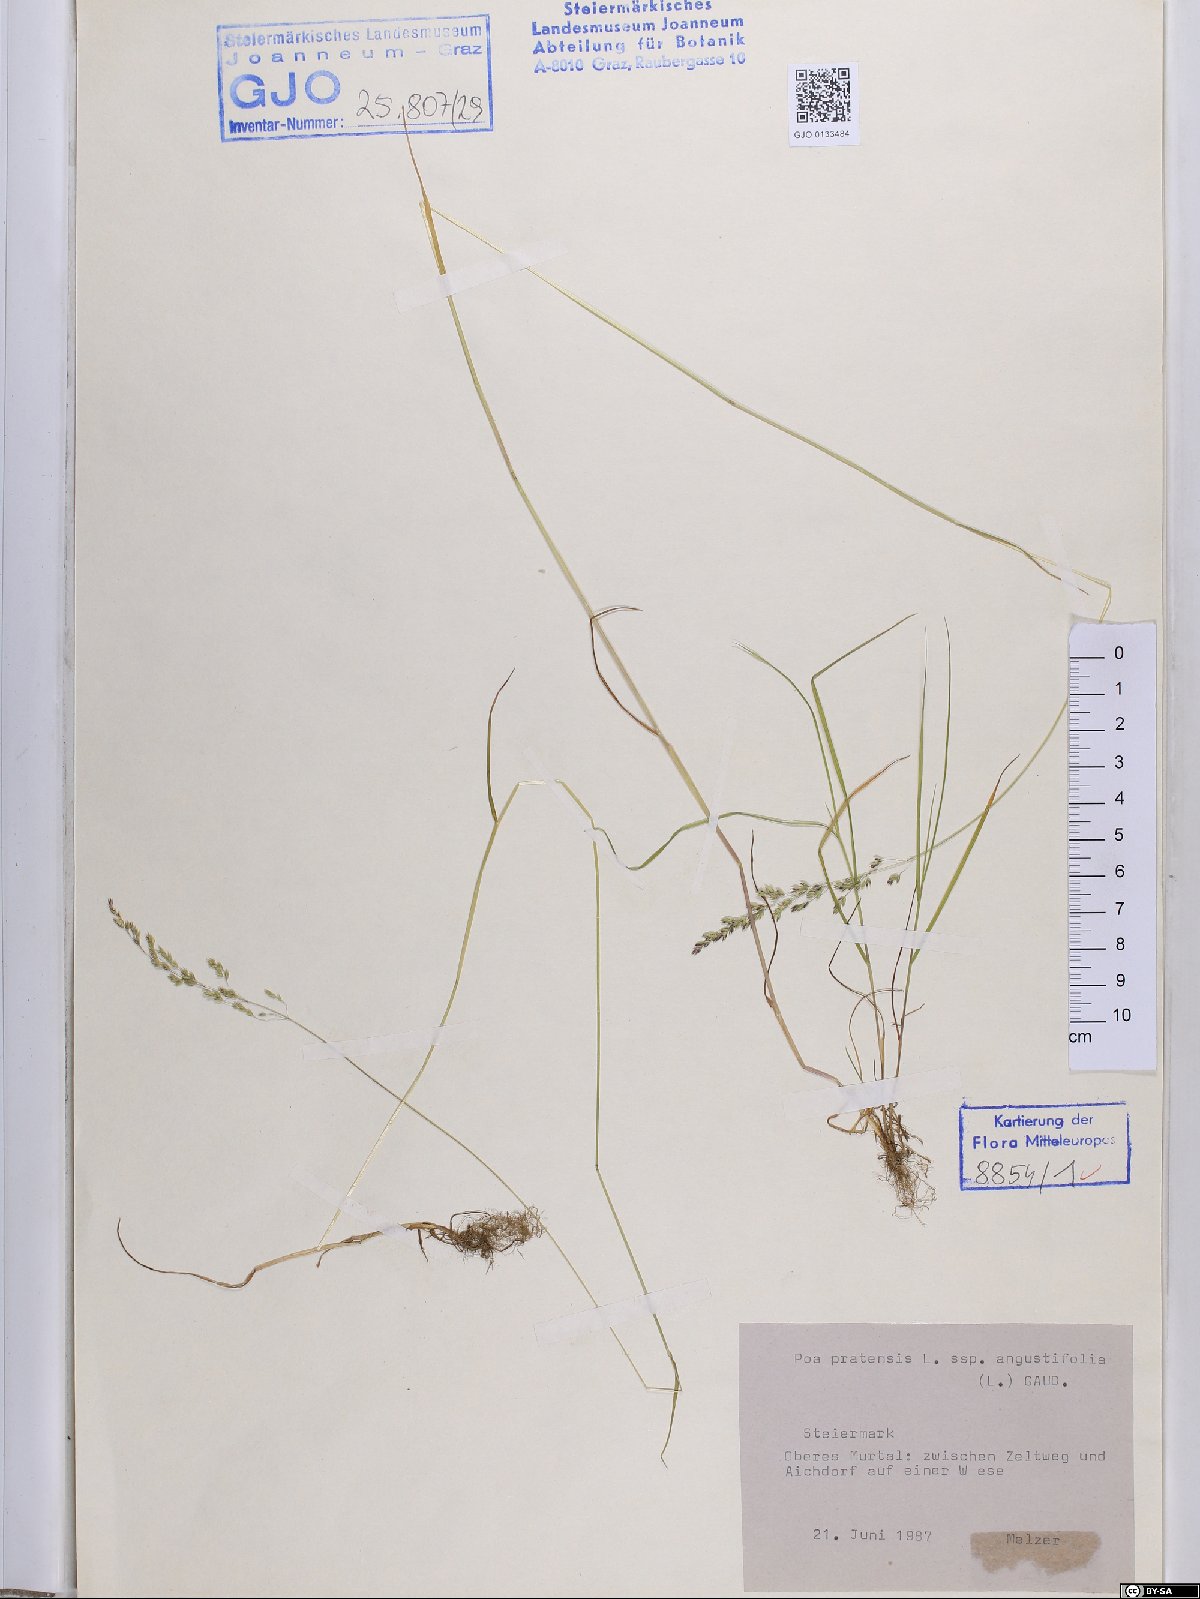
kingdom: Plantae
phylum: Tracheophyta
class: Liliopsida
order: Poales
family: Poaceae
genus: Poa
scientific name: Poa angustifolia
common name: Narrow-leaved meadow-grass
